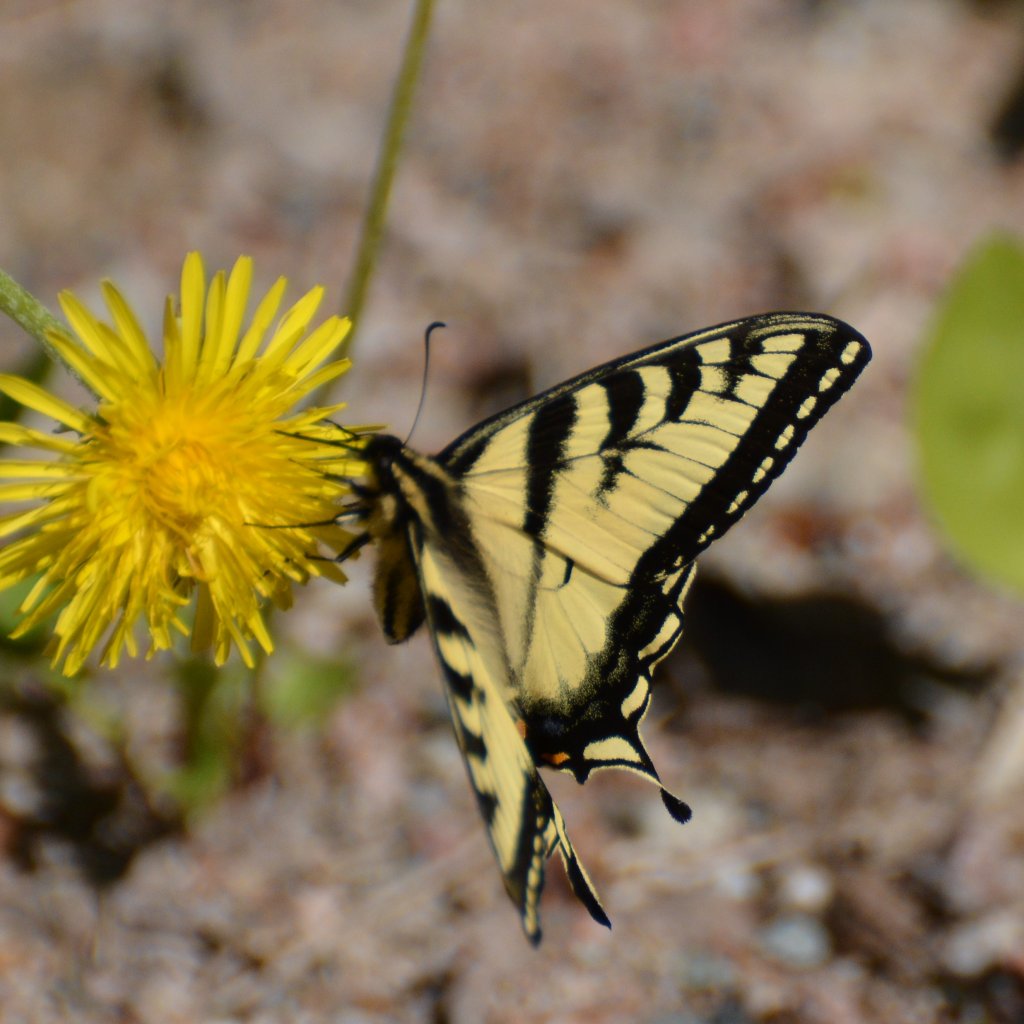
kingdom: Animalia
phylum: Arthropoda
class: Insecta
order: Lepidoptera
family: Papilionidae
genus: Pterourus
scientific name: Pterourus canadensis
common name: Canadian Tiger Swallowtail
